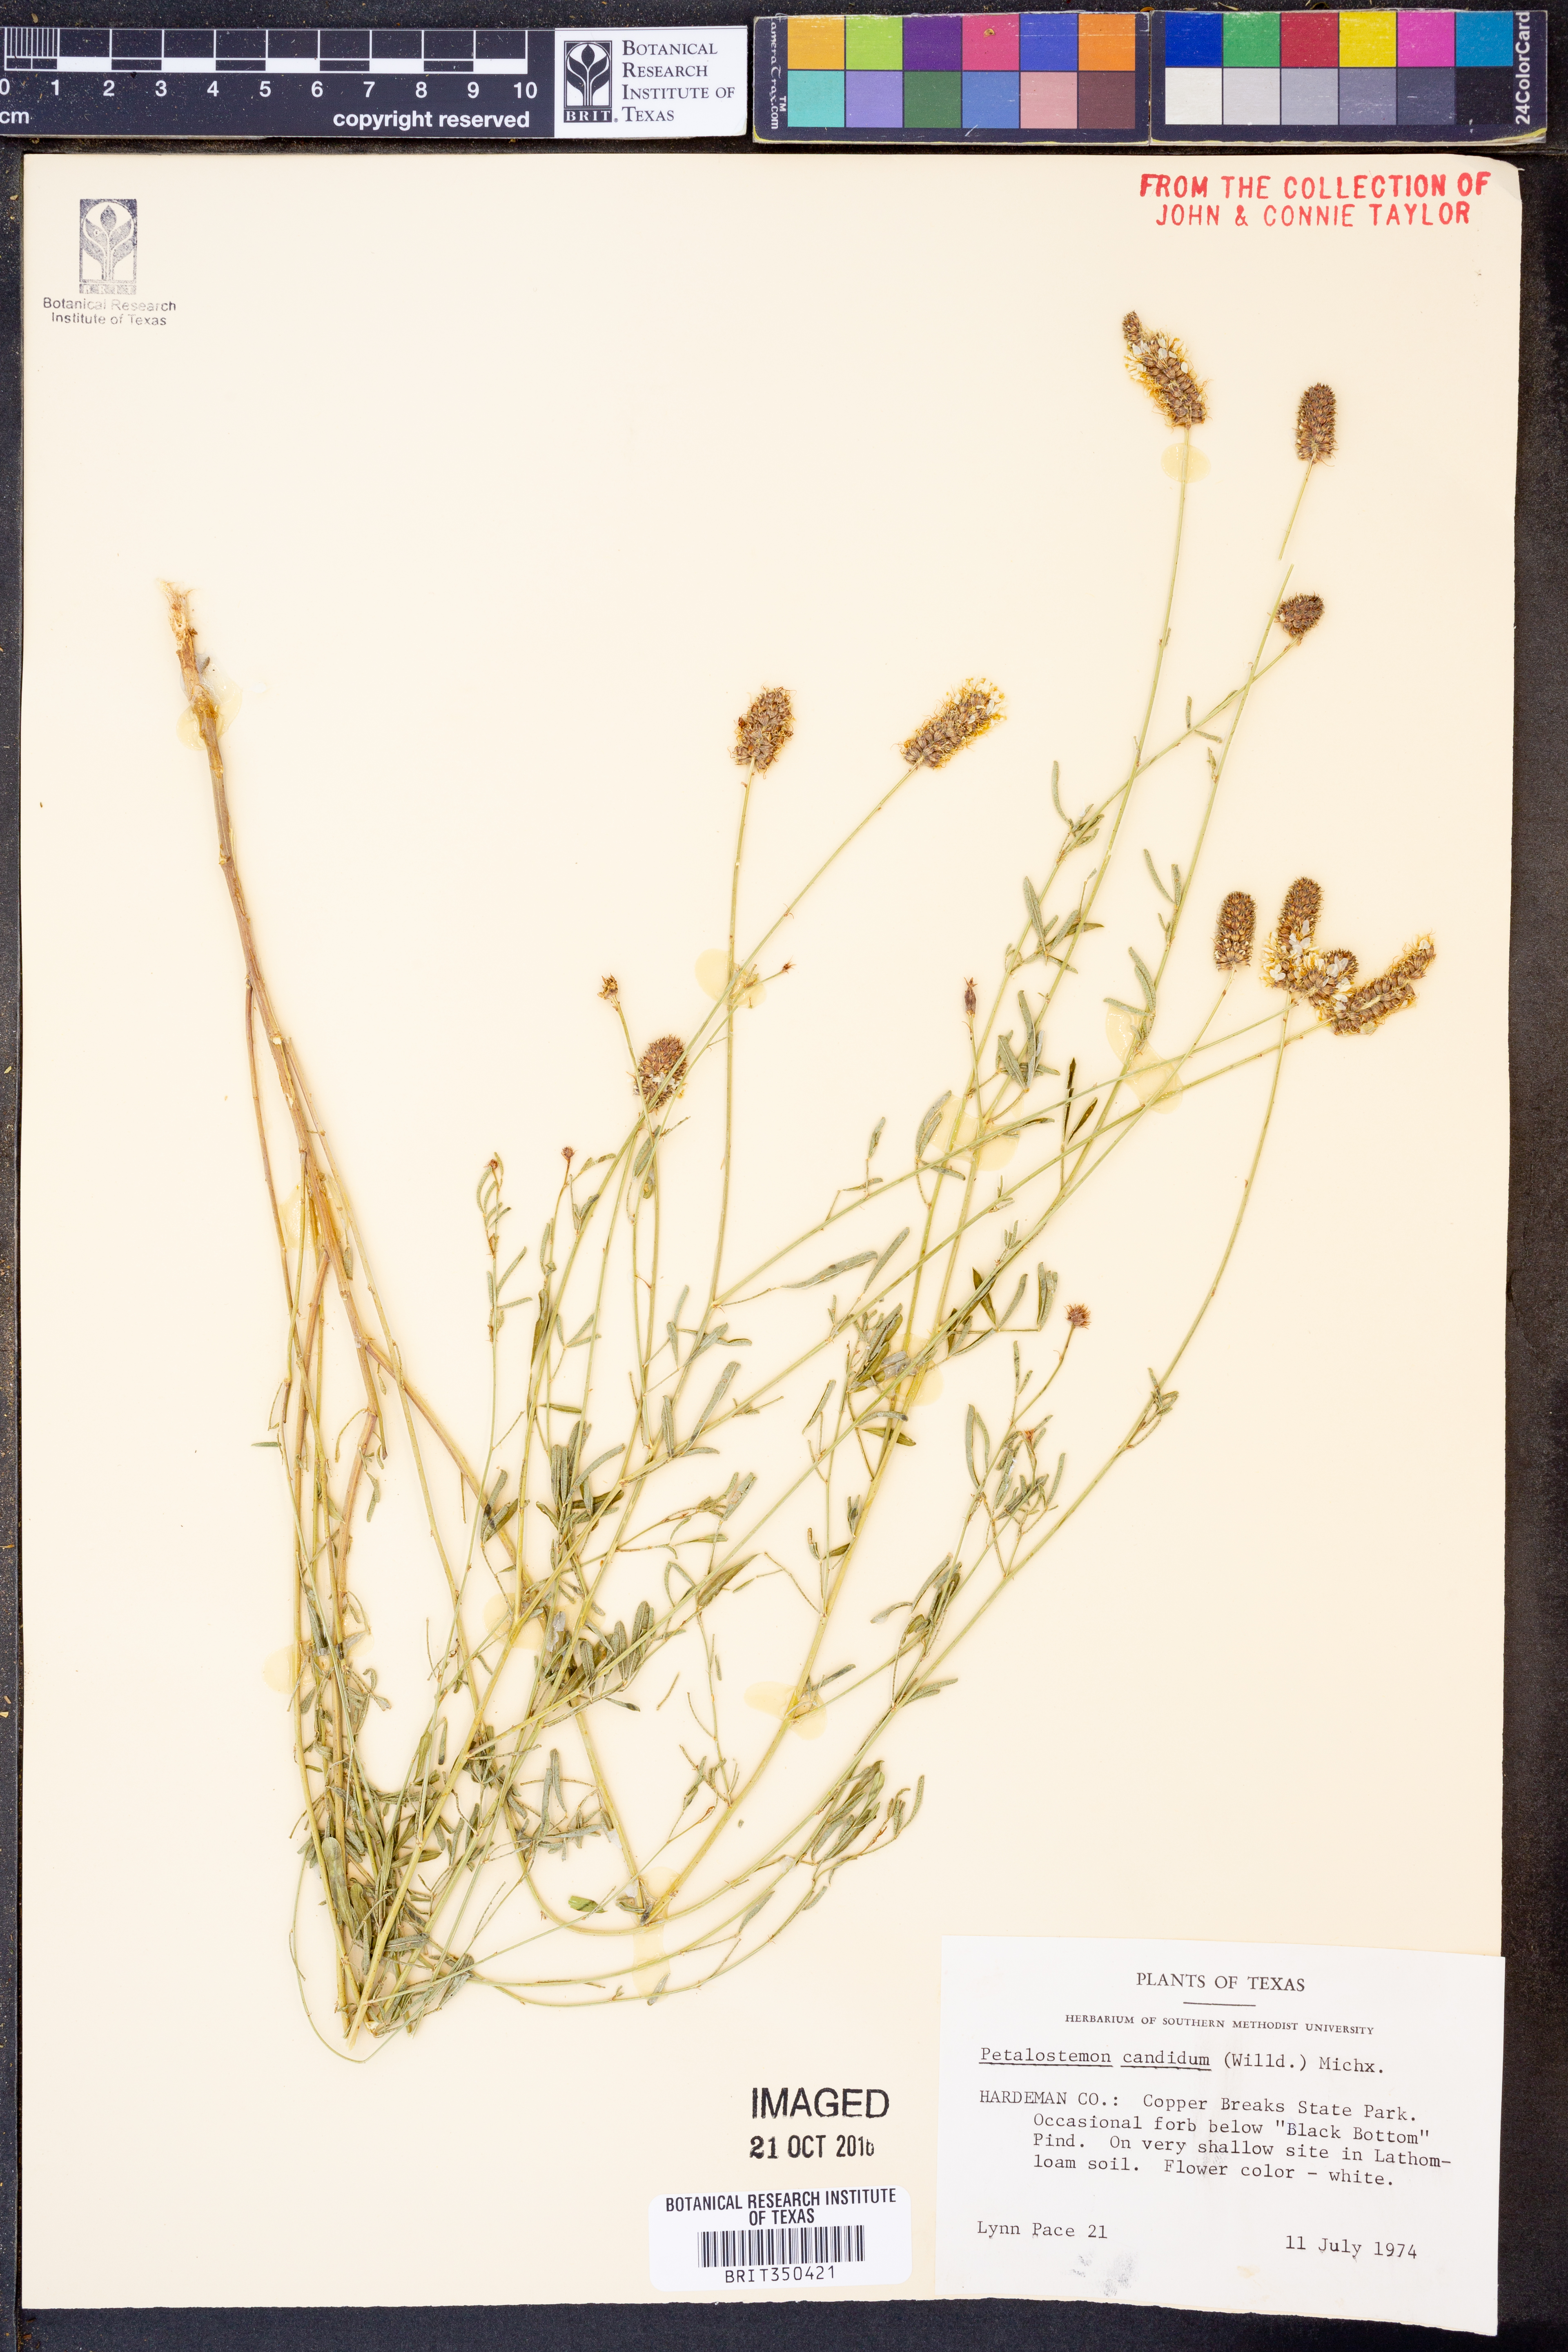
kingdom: Plantae
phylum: Tracheophyta
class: Magnoliopsida
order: Fabales
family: Fabaceae
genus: Dalea
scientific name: Dalea candida
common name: White prairie-clover
